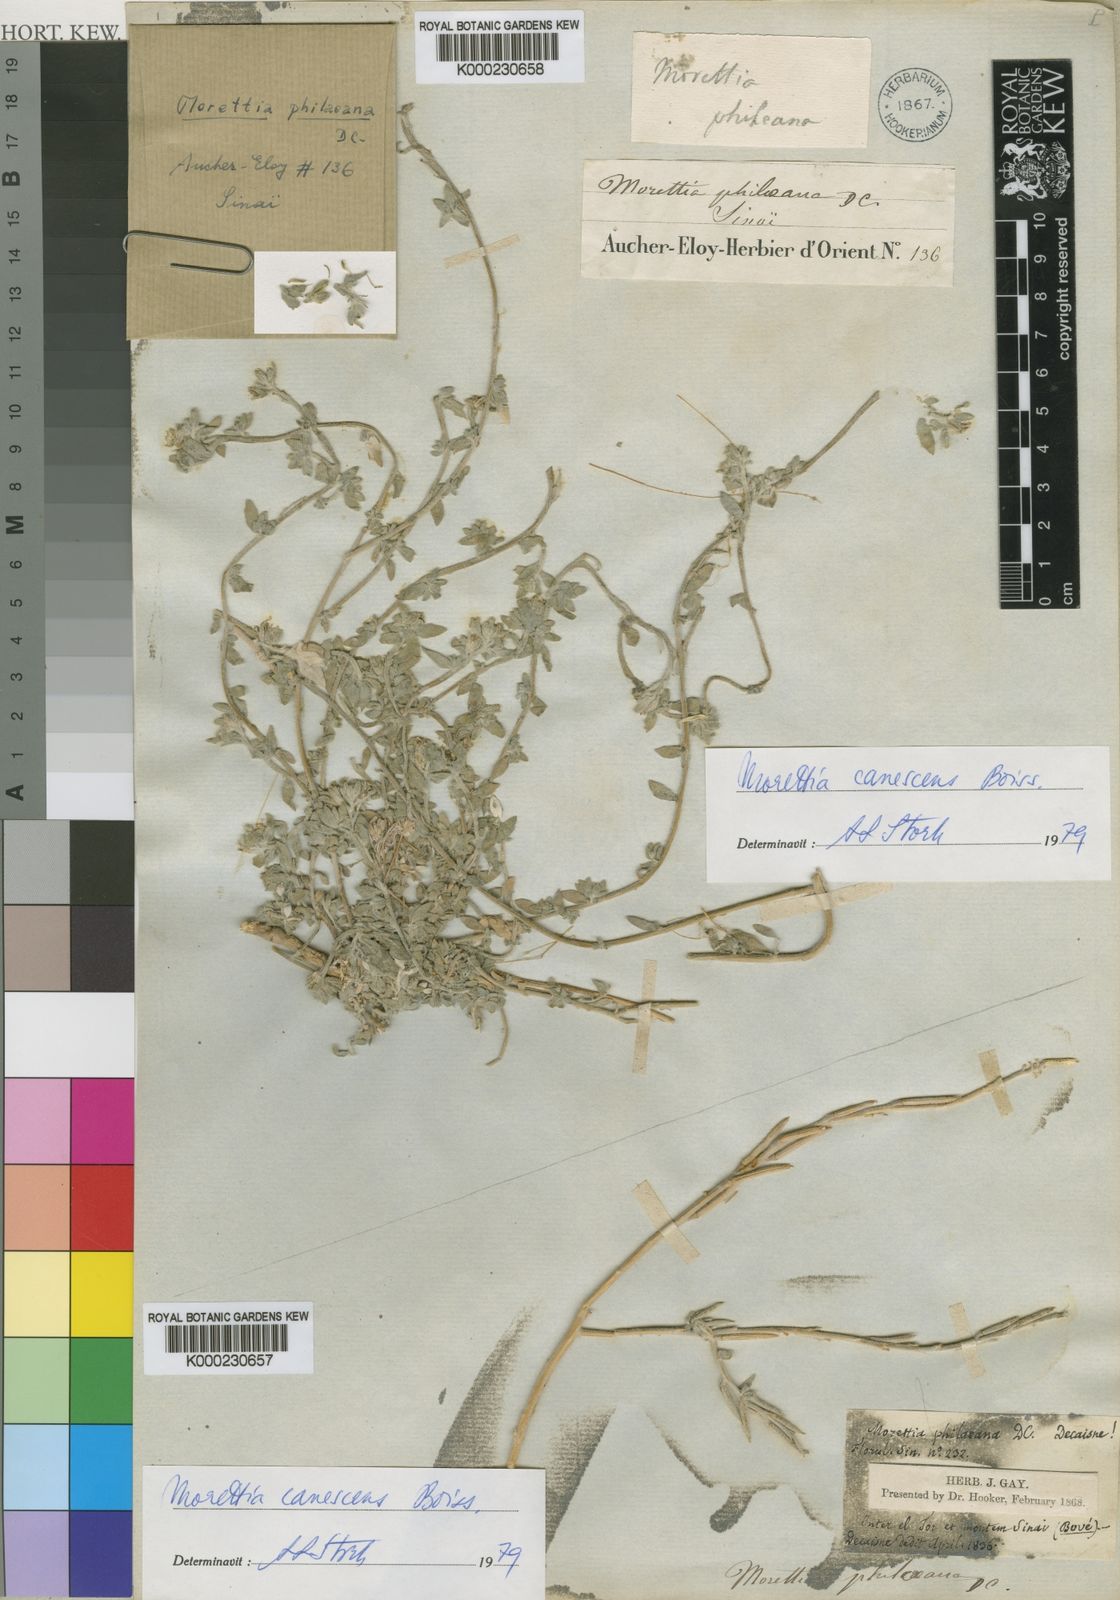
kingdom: Plantae
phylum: Tracheophyta
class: Magnoliopsida
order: Brassicales
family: Brassicaceae
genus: Morettia
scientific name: Morettia canescens
